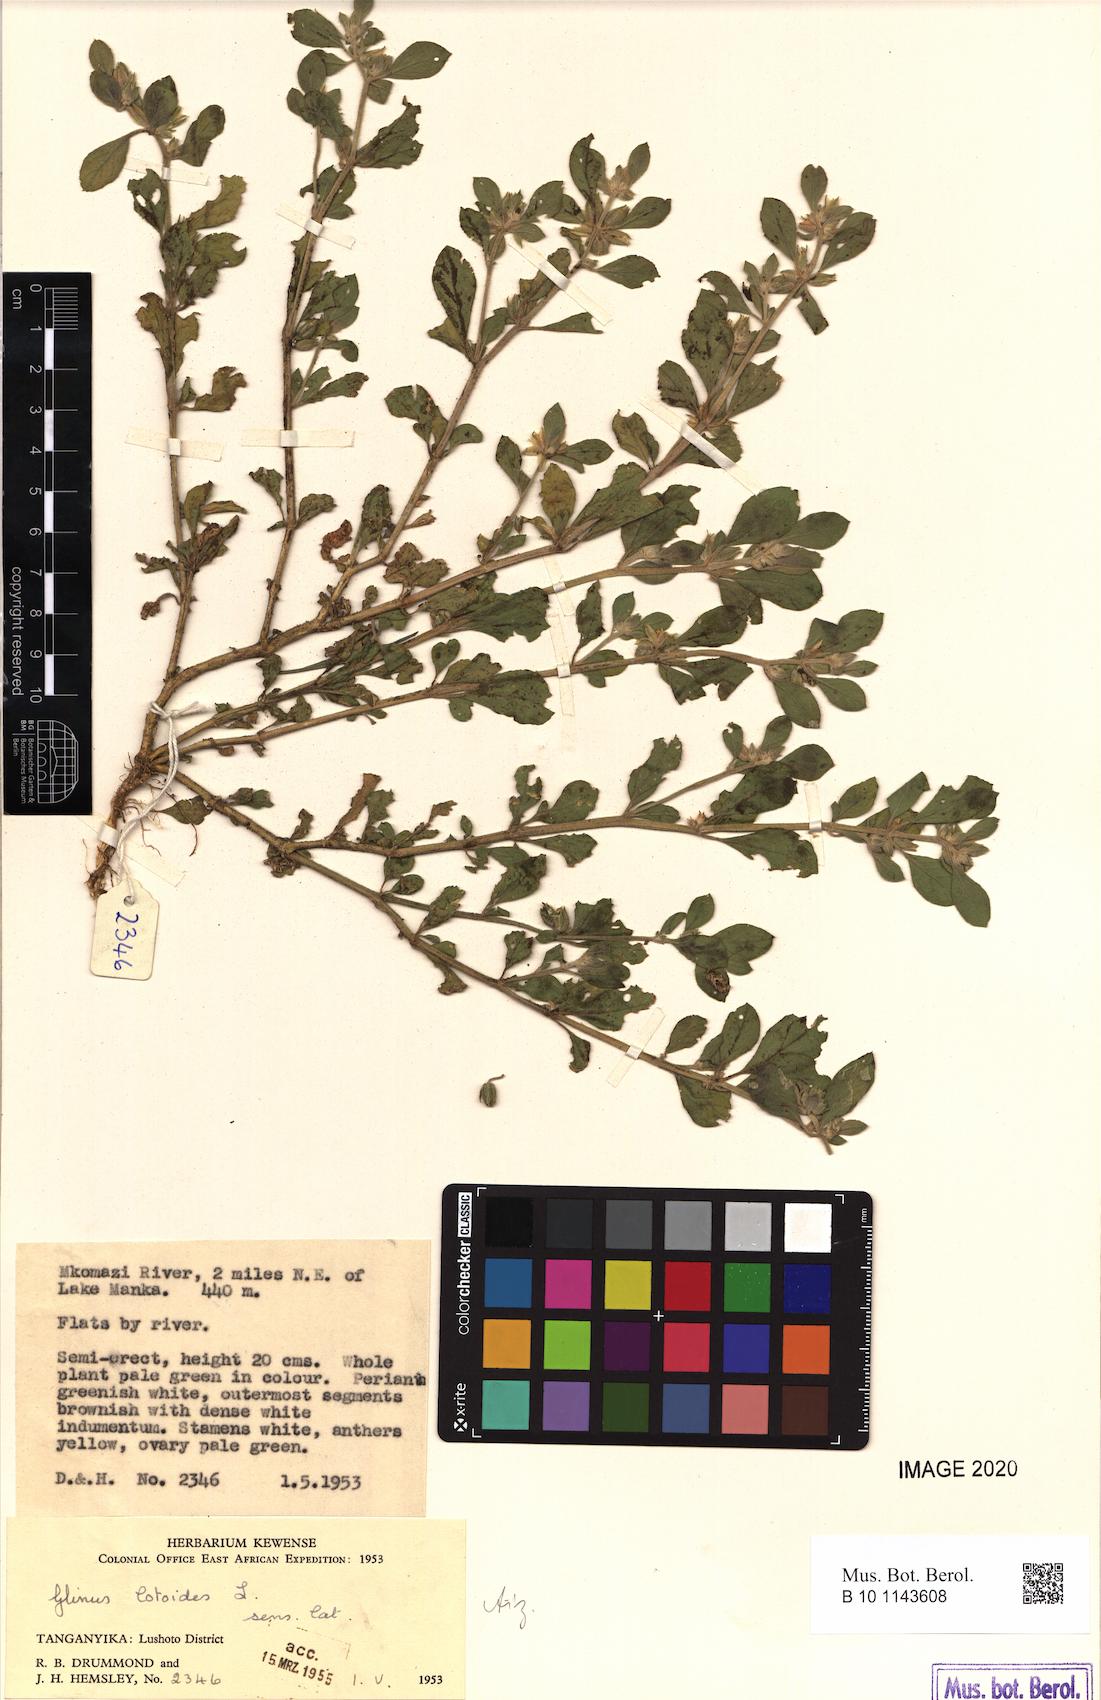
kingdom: Plantae
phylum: Tracheophyta
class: Magnoliopsida
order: Caryophyllales
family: Molluginaceae
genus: Glinus
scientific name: Glinus lotoides
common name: Lotus sweetjuice
